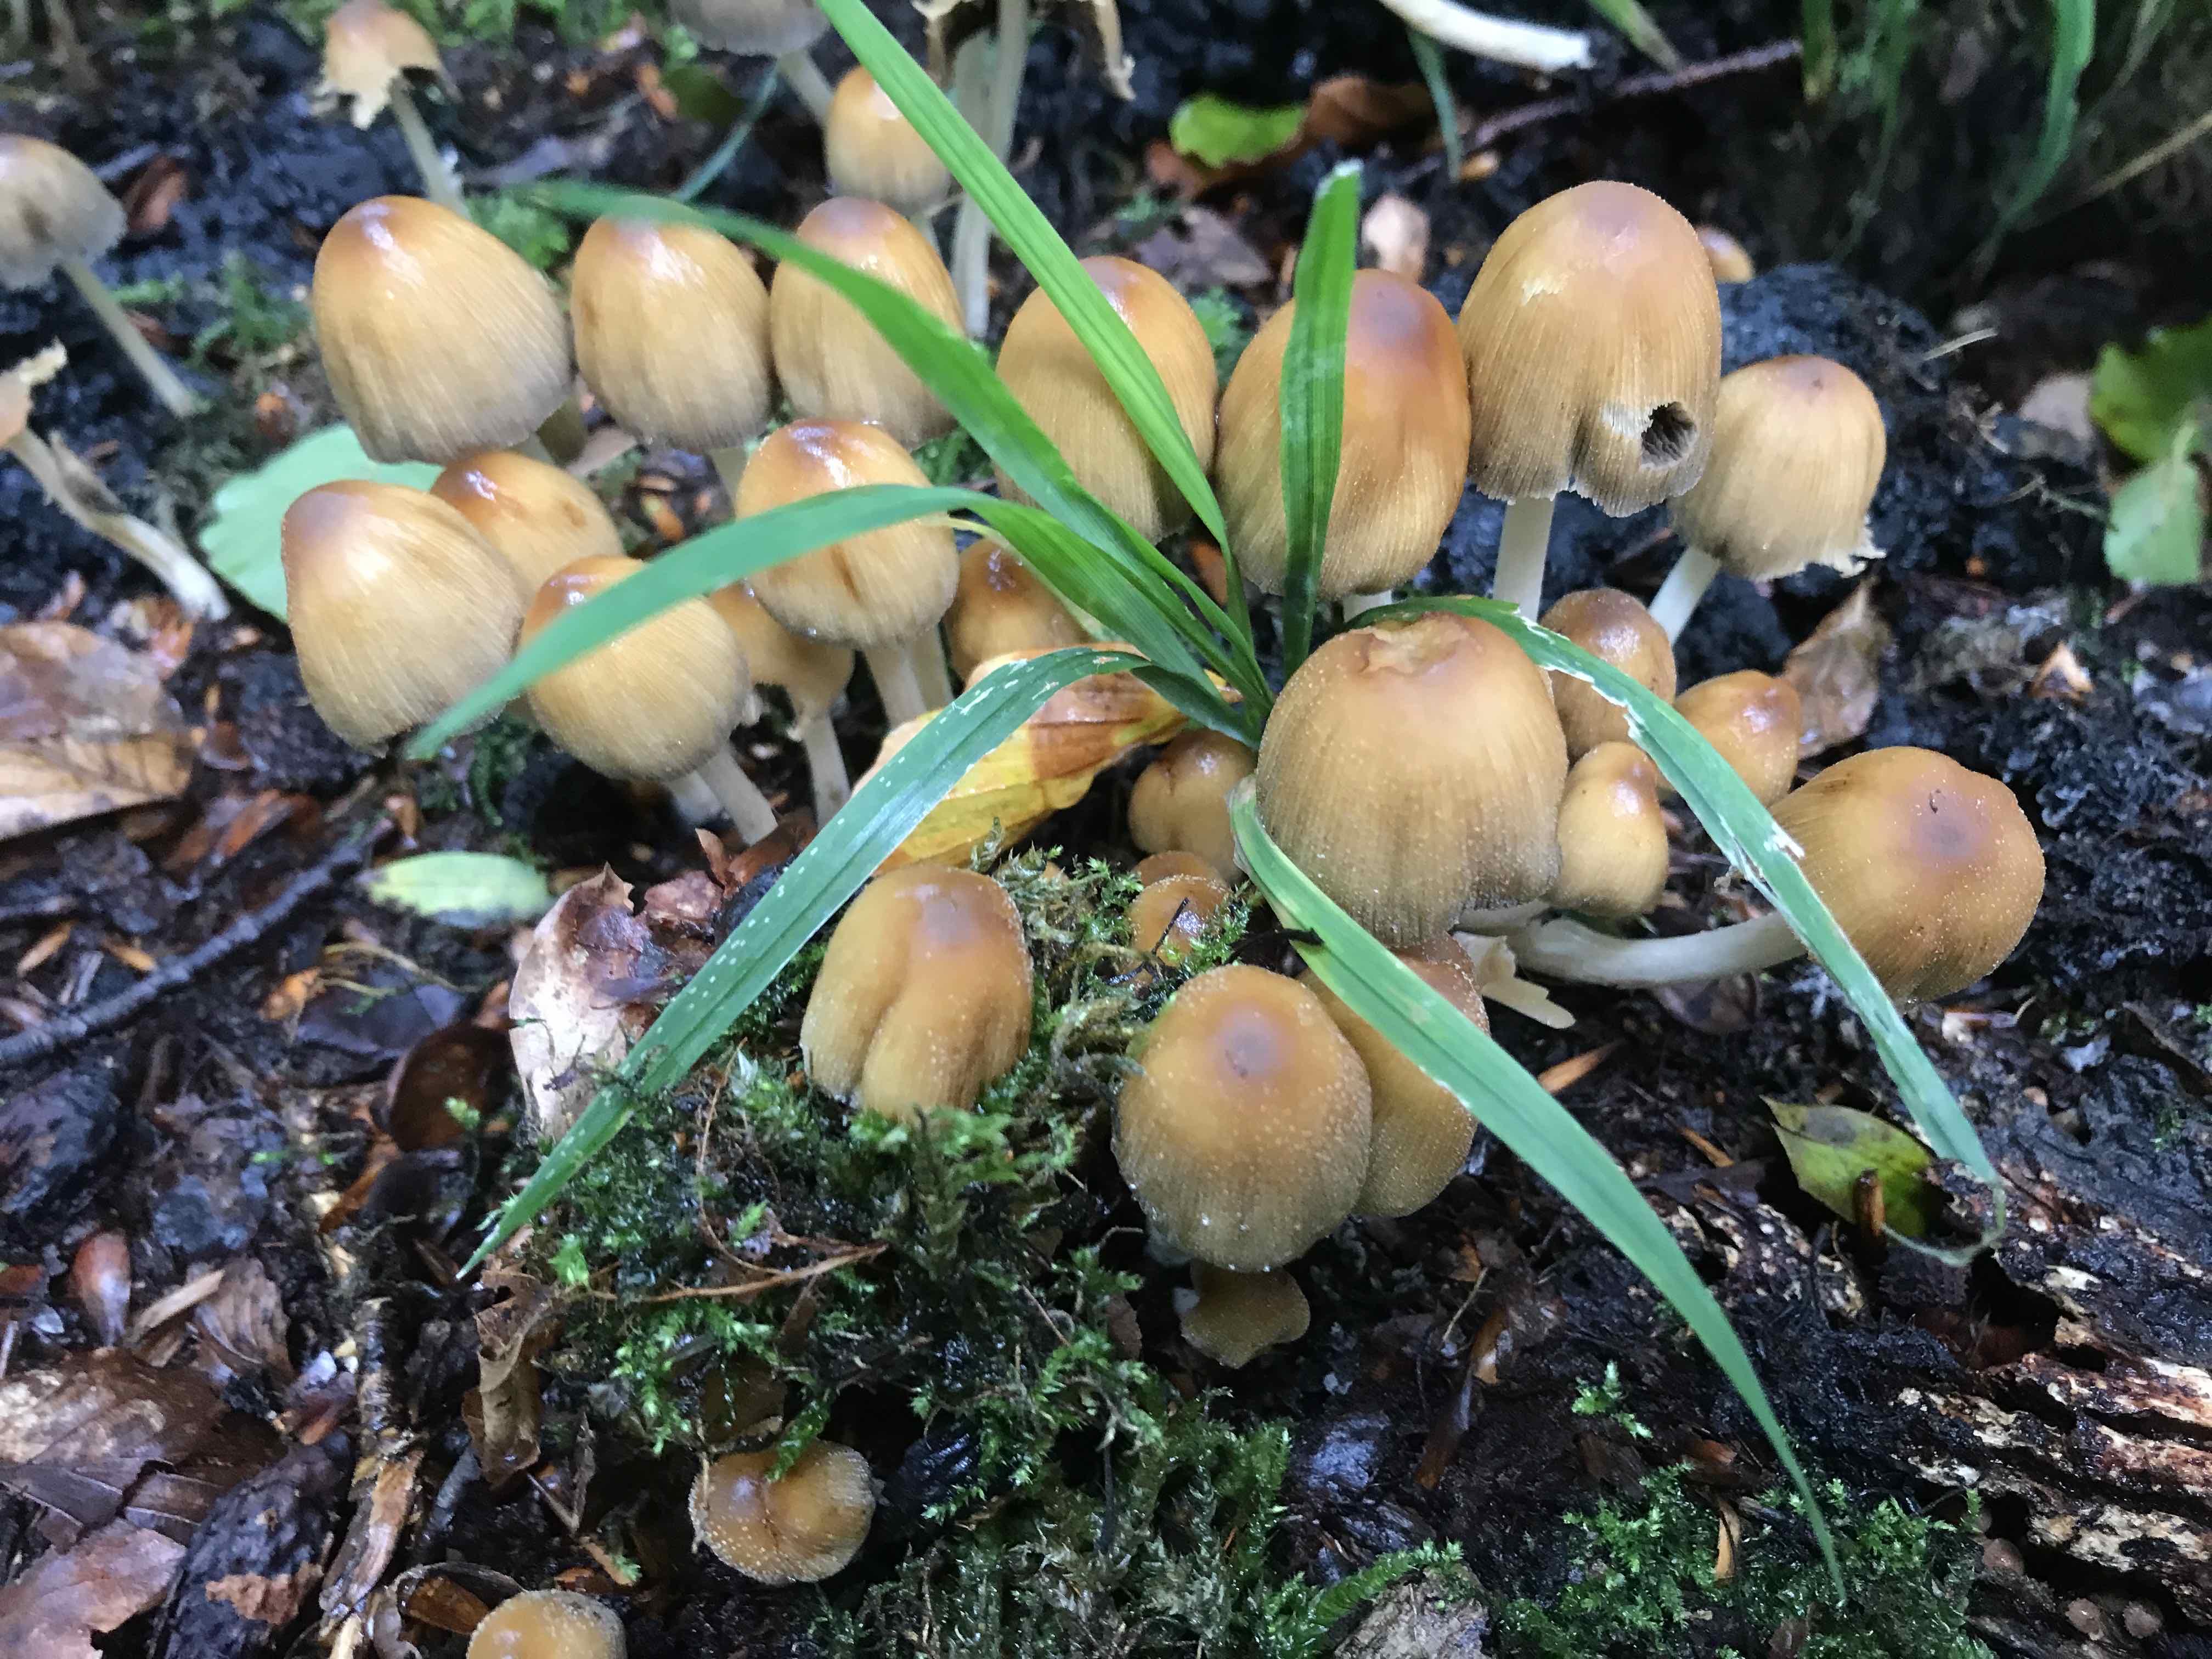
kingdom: Fungi
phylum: Basidiomycota
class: Agaricomycetes
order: Agaricales
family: Psathyrellaceae
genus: Coprinellus
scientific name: Coprinellus micaceus
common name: glimmer-blækhat
